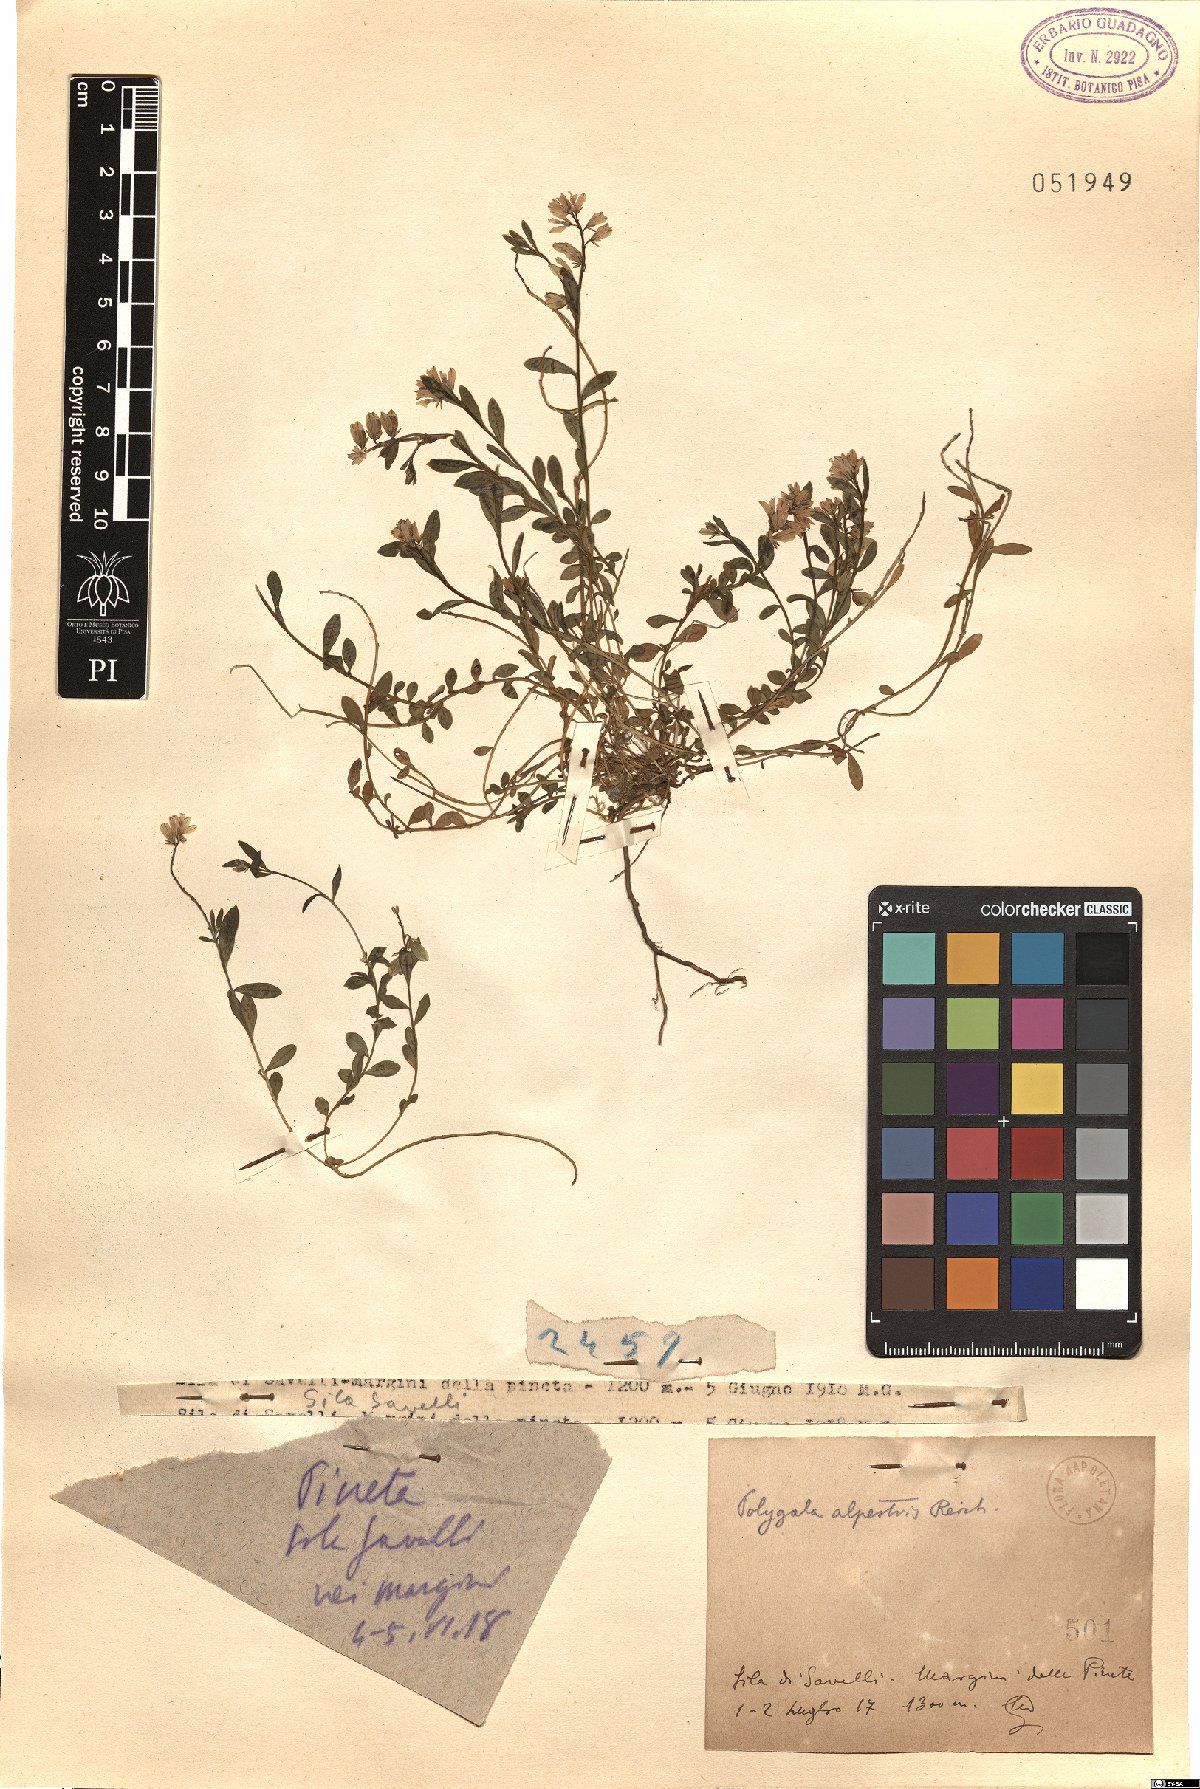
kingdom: Plantae
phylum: Tracheophyta
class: Magnoliopsida
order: Fabales
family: Polygalaceae
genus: Polygala
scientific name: Polygala alpestris
